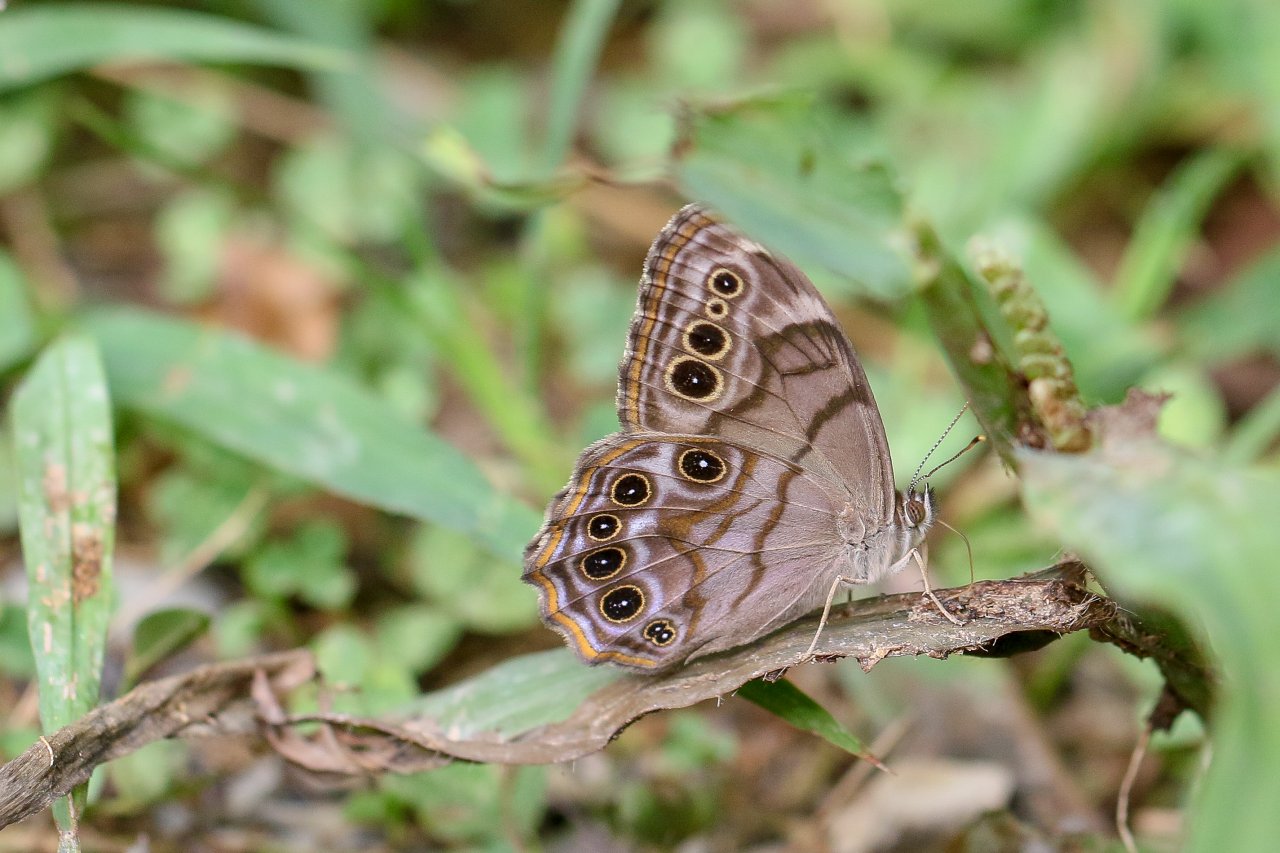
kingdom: Animalia
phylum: Arthropoda
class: Insecta
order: Lepidoptera
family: Nymphalidae
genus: Lethe
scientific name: Lethe anthedon
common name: Northern Pearly-Eye
